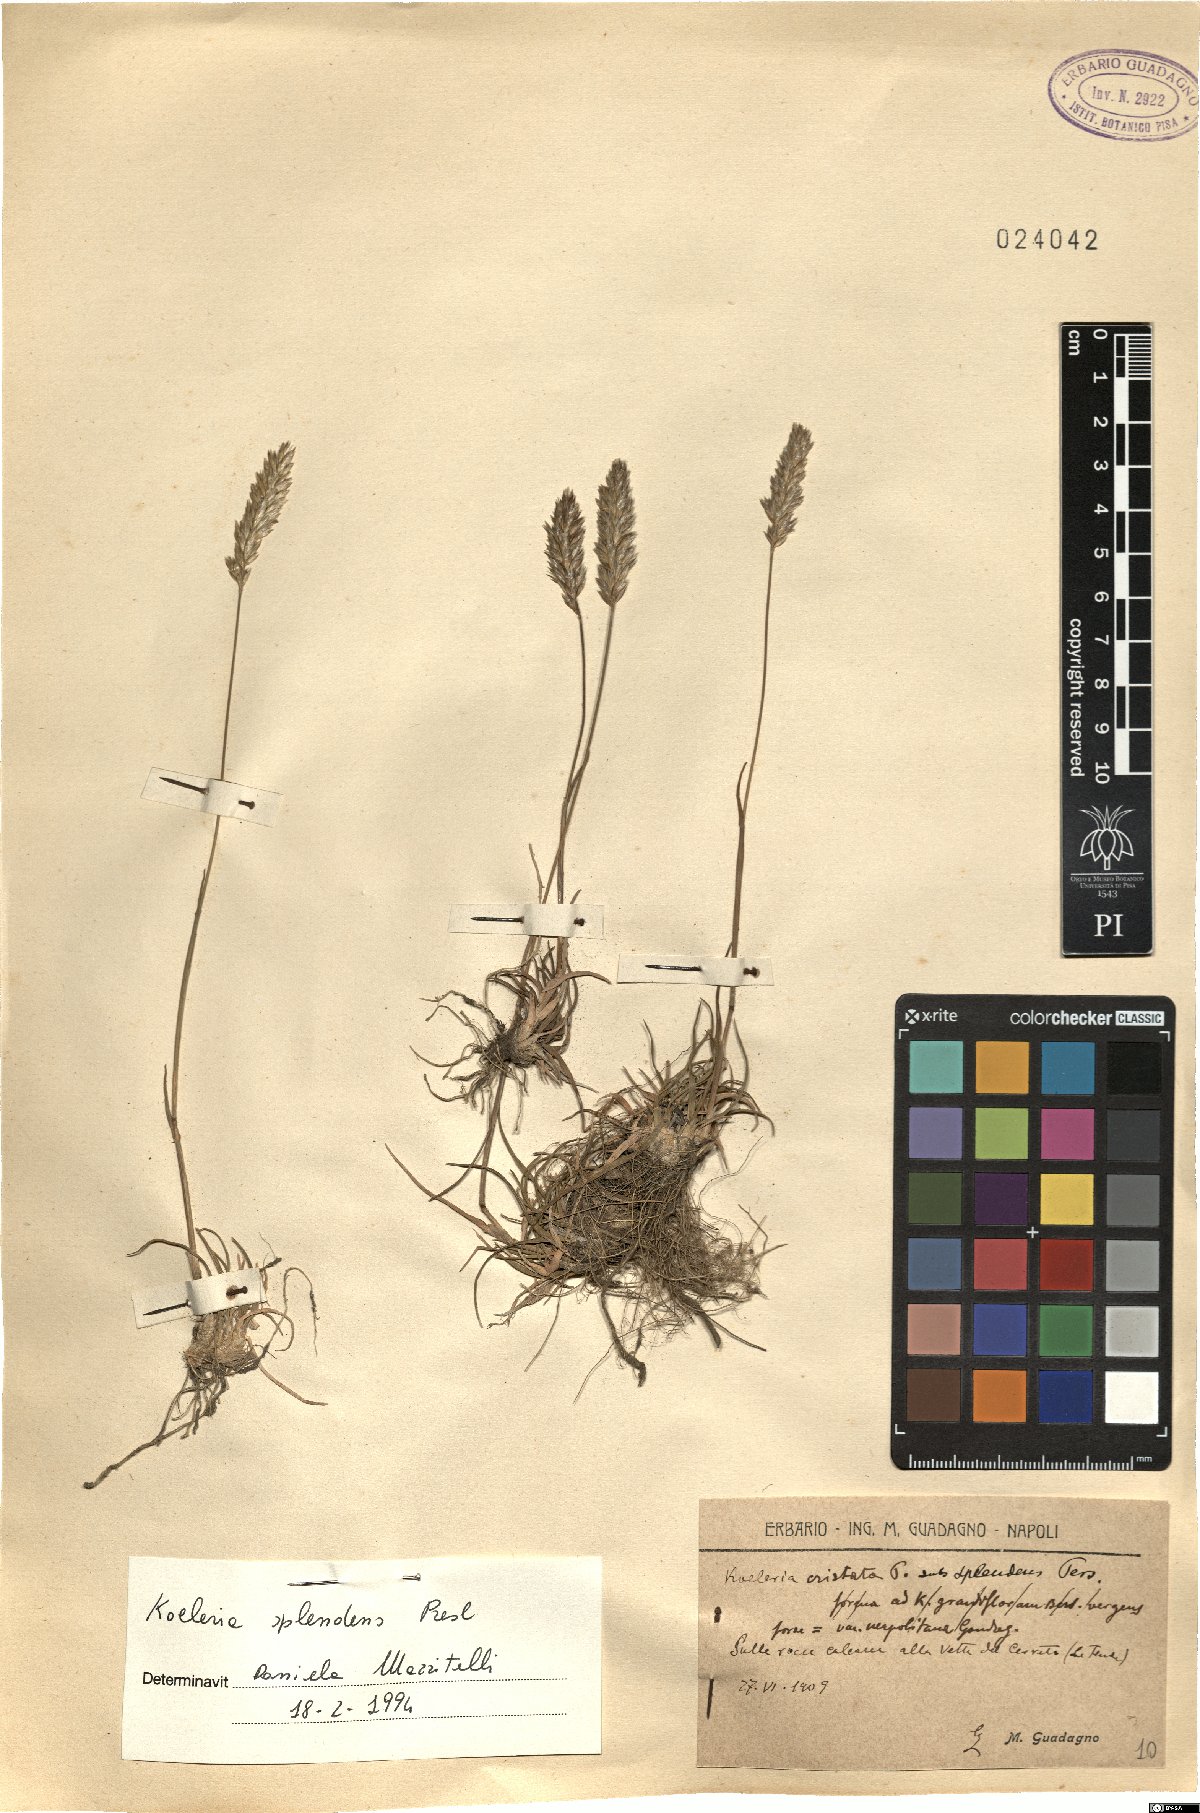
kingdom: Plantae
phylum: Tracheophyta
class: Liliopsida
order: Poales
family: Poaceae
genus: Koeleria
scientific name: Koeleria splendens
